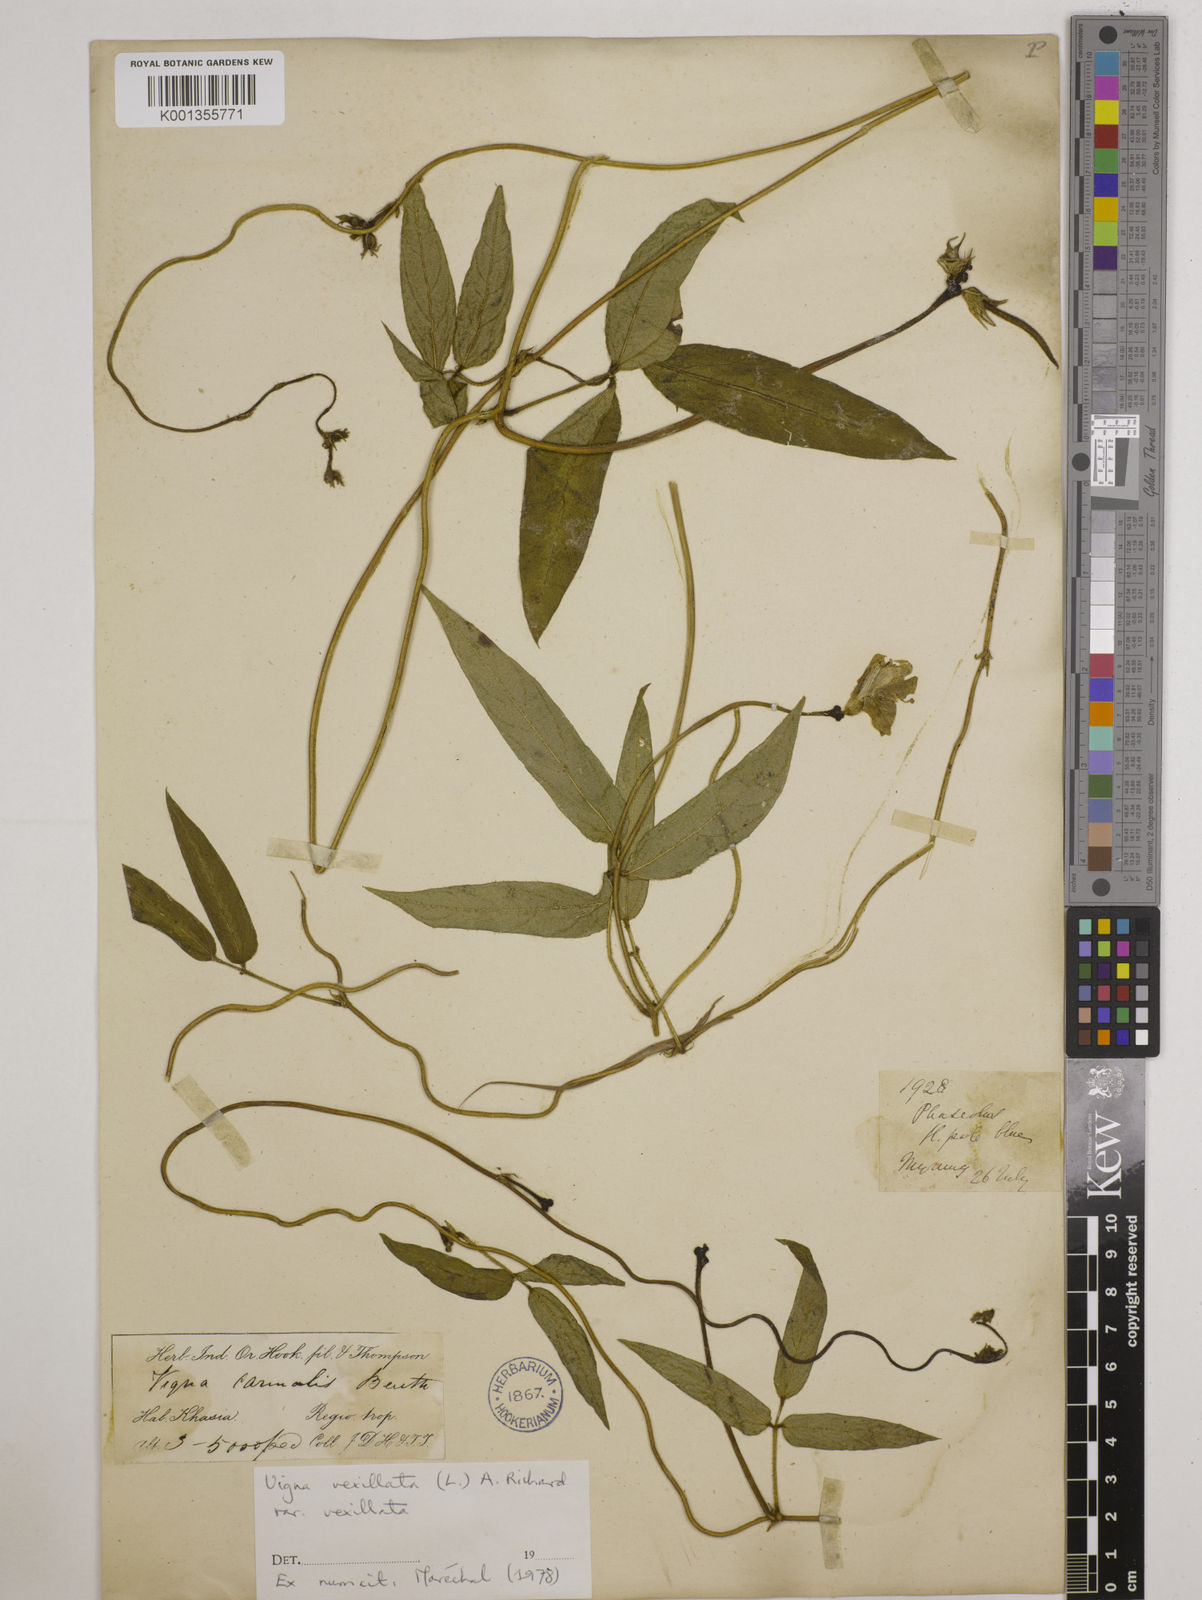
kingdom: Plantae
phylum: Tracheophyta
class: Magnoliopsida
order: Fabales
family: Fabaceae
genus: Vigna
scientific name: Vigna vexillata
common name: Zombi pea
